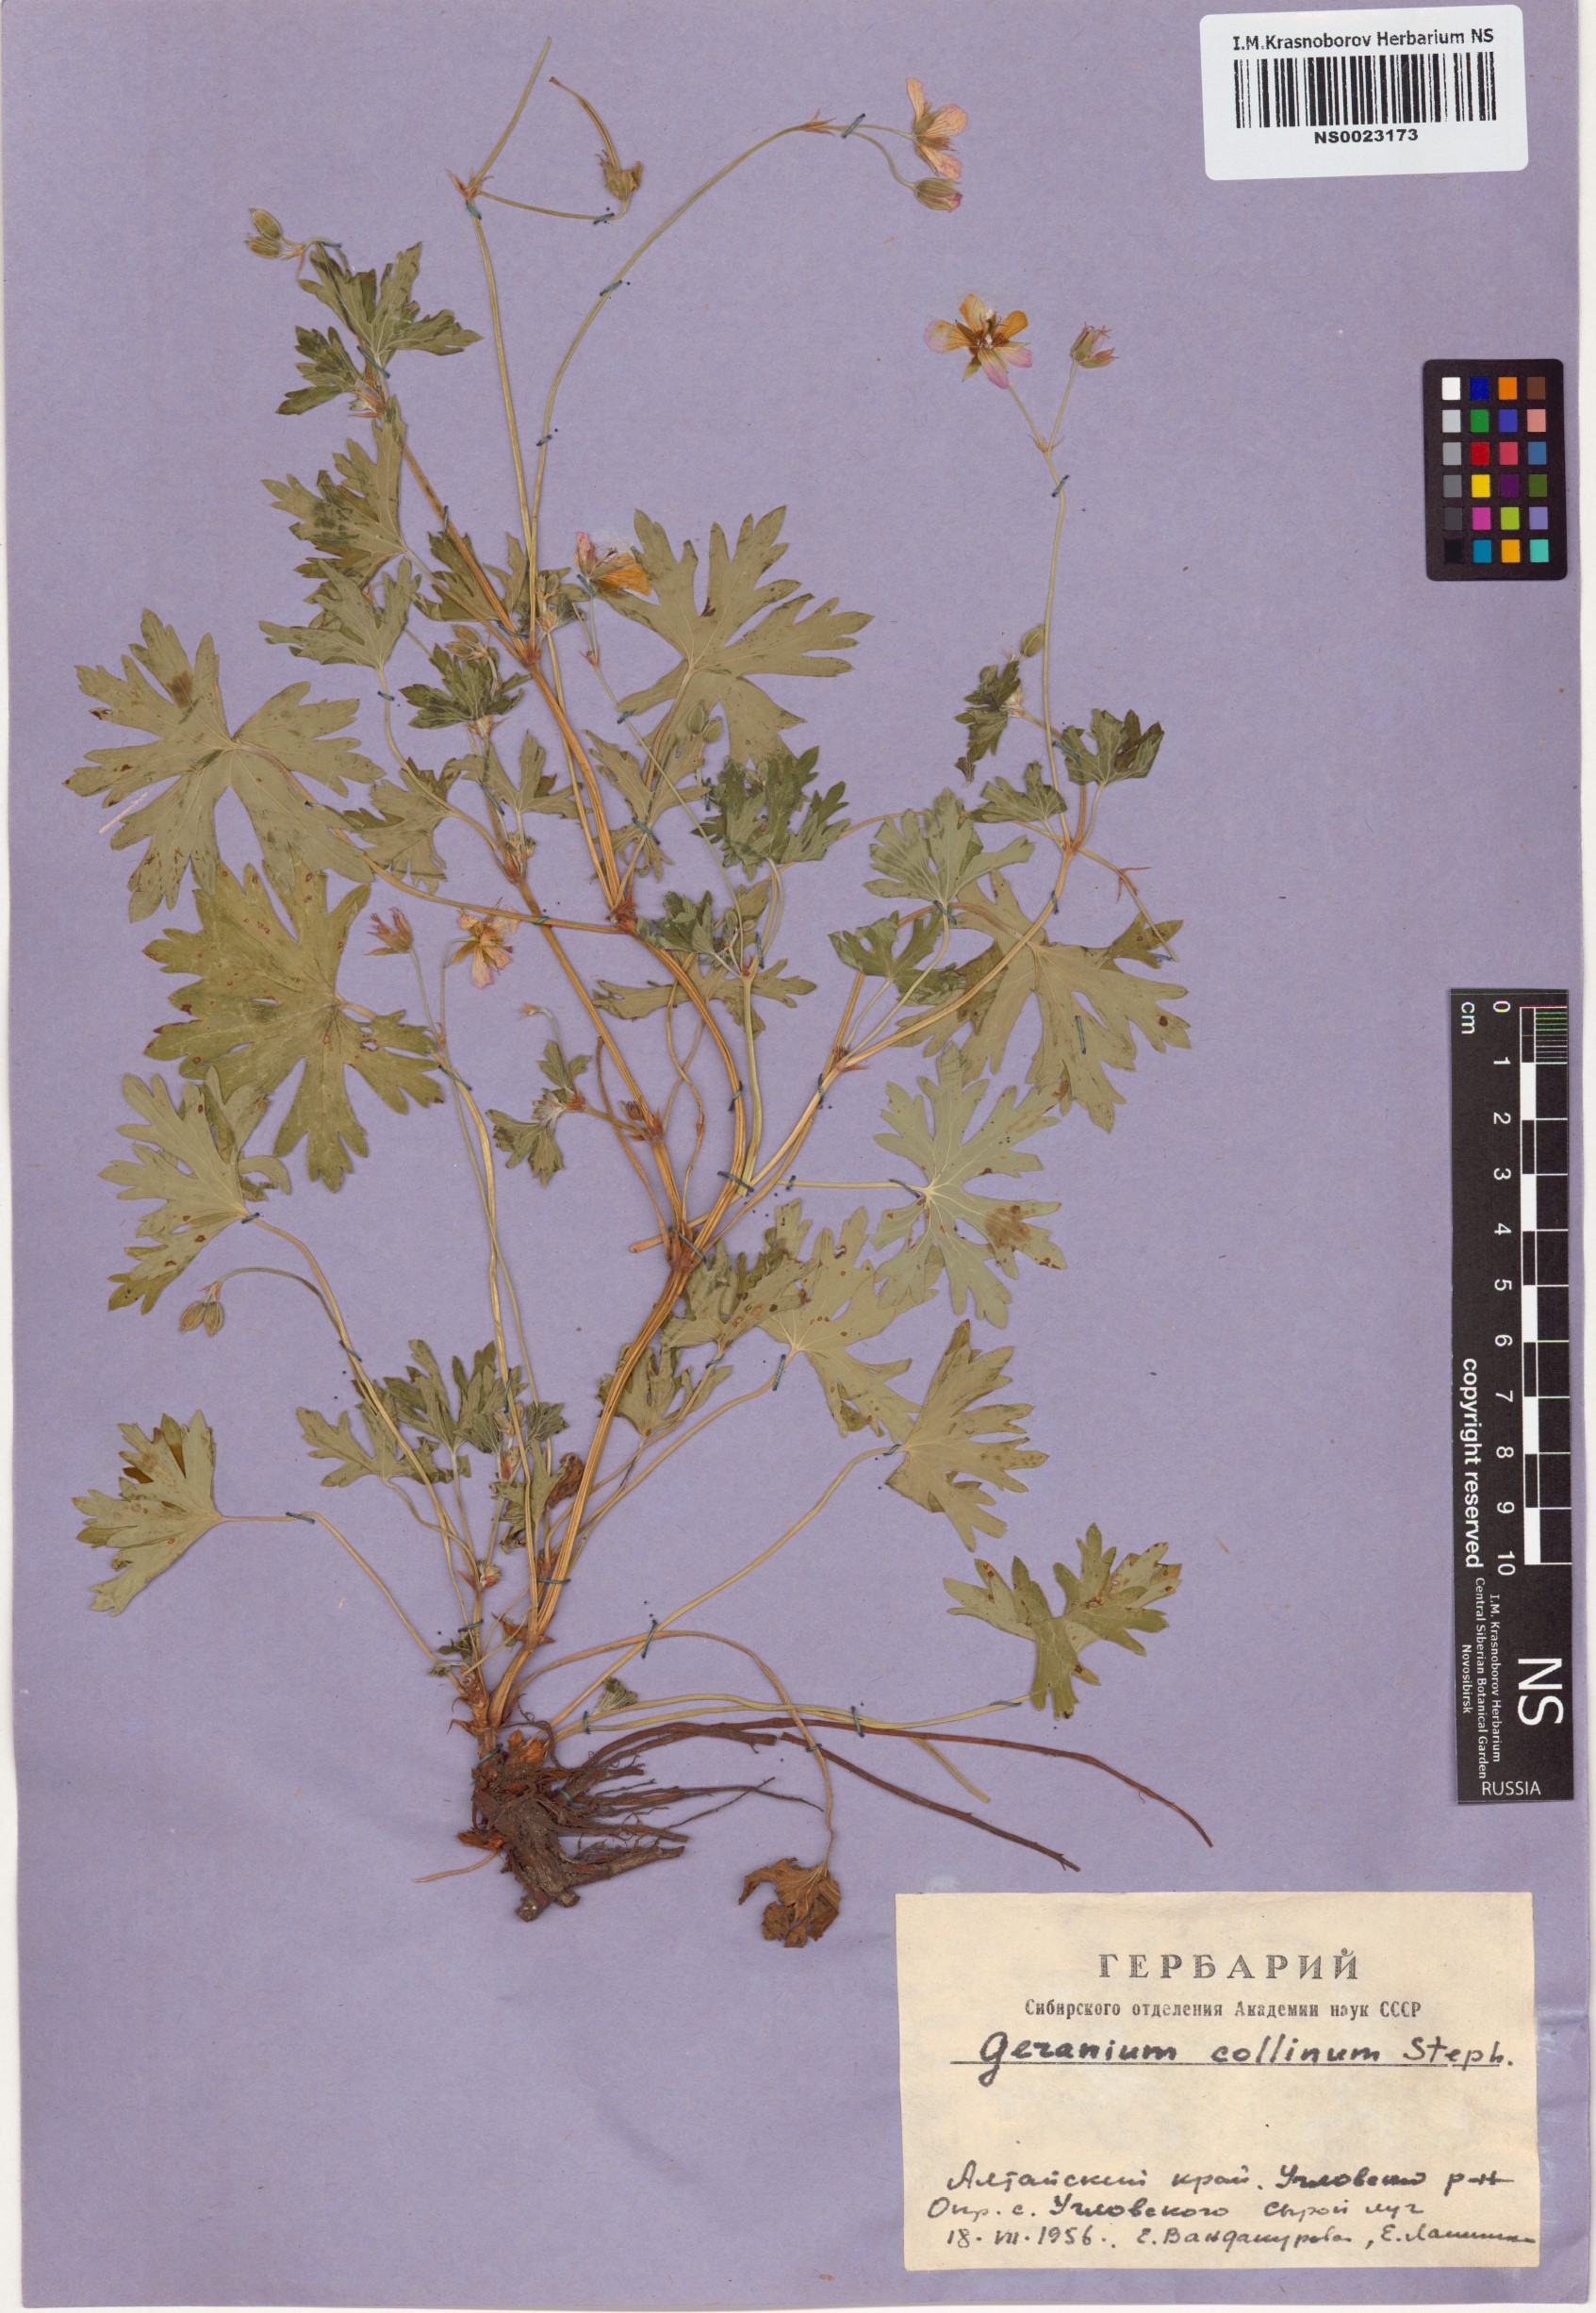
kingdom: Plantae
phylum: Tracheophyta
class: Magnoliopsida
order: Geraniales
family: Geraniaceae
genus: Geranium
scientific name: Geranium collinum
